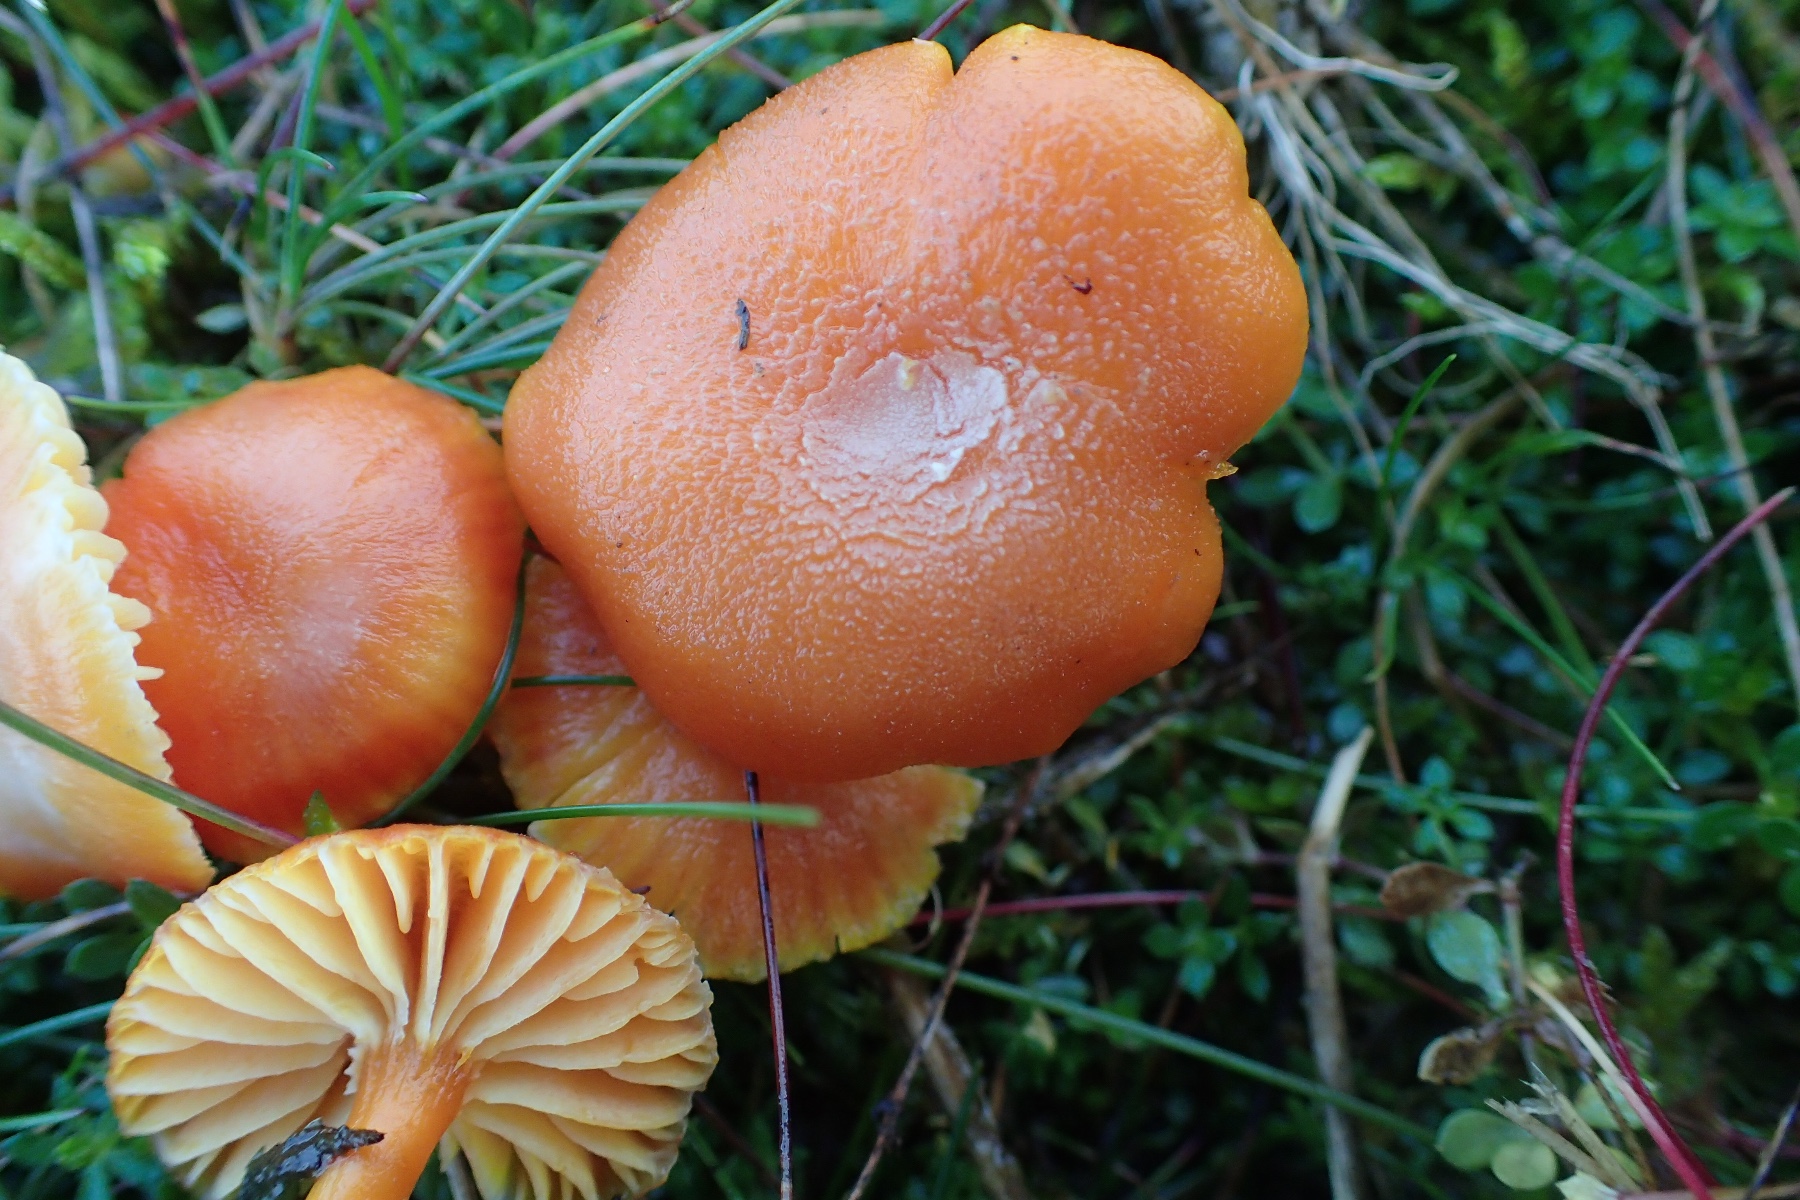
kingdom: Fungi
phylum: Basidiomycota
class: Agaricomycetes
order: Agaricales
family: Hygrophoraceae
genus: Hygrocybe
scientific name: Hygrocybe miniata
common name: mønje-vokshat
